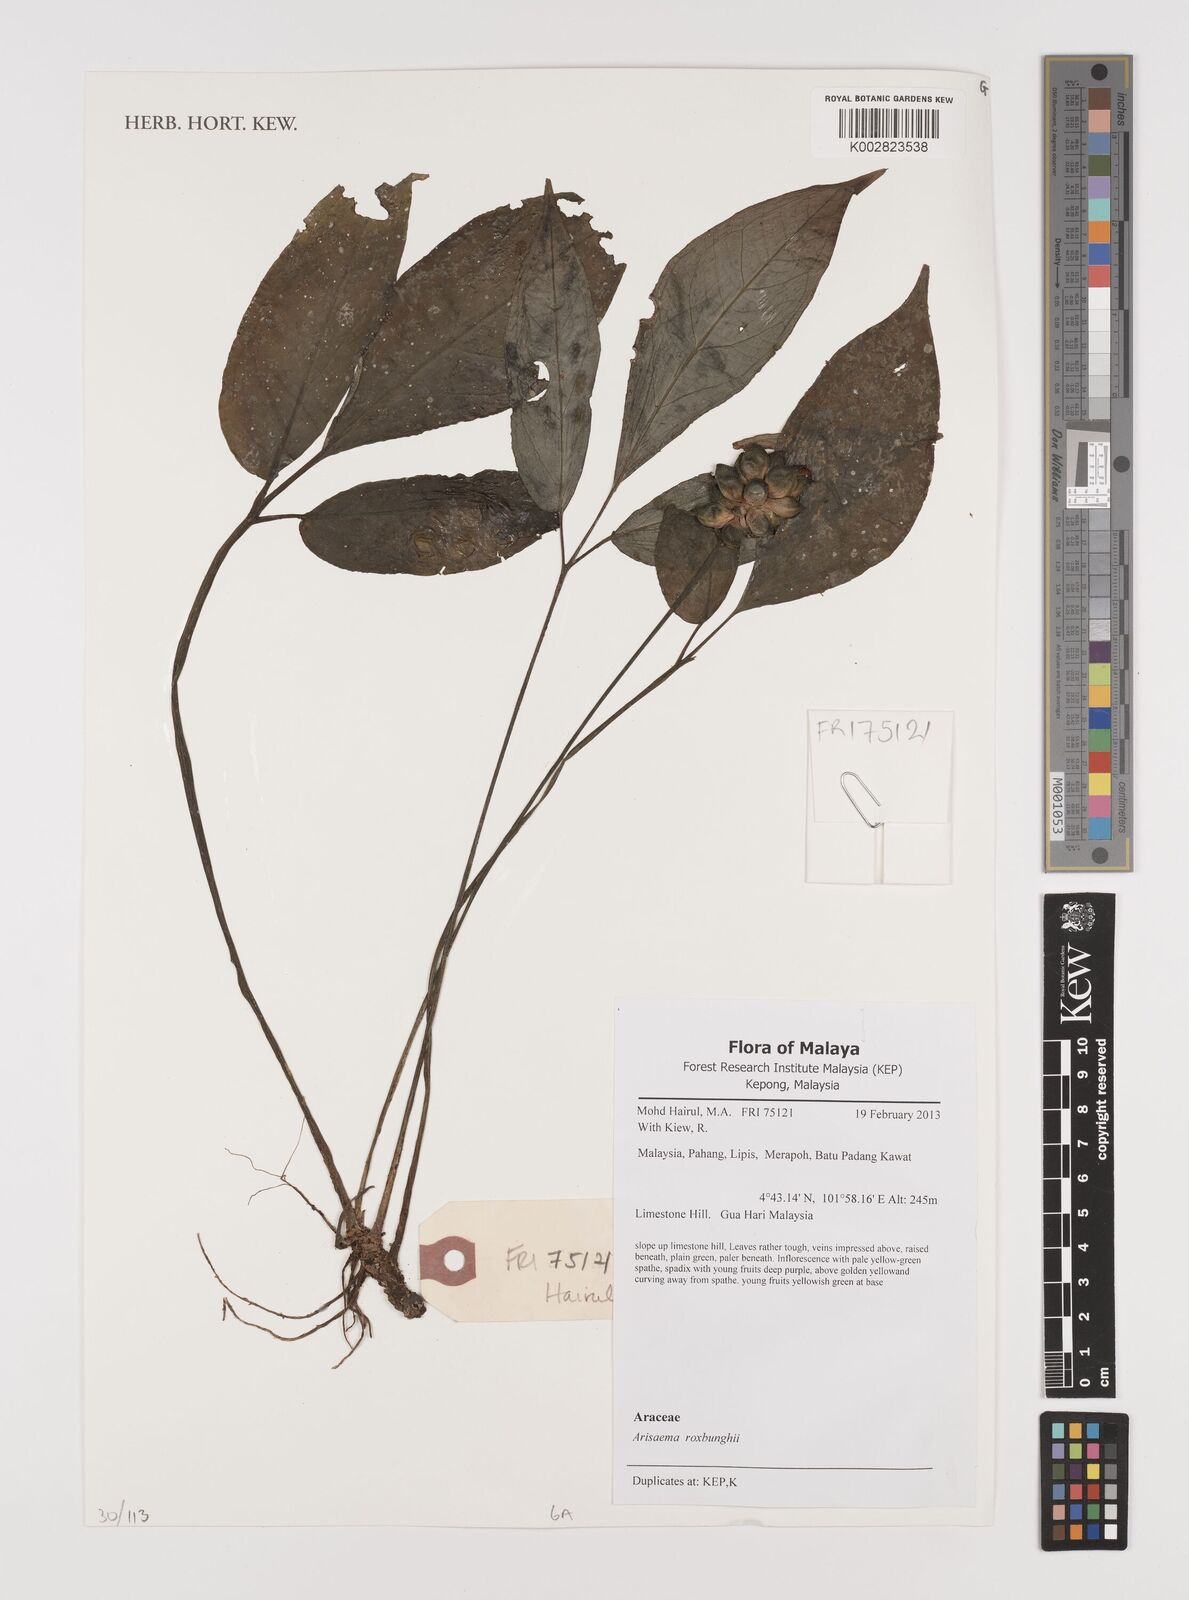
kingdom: Plantae
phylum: Tracheophyta
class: Liliopsida
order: Alismatales
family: Araceae
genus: Arisaema
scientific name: Arisaema roxburghii
